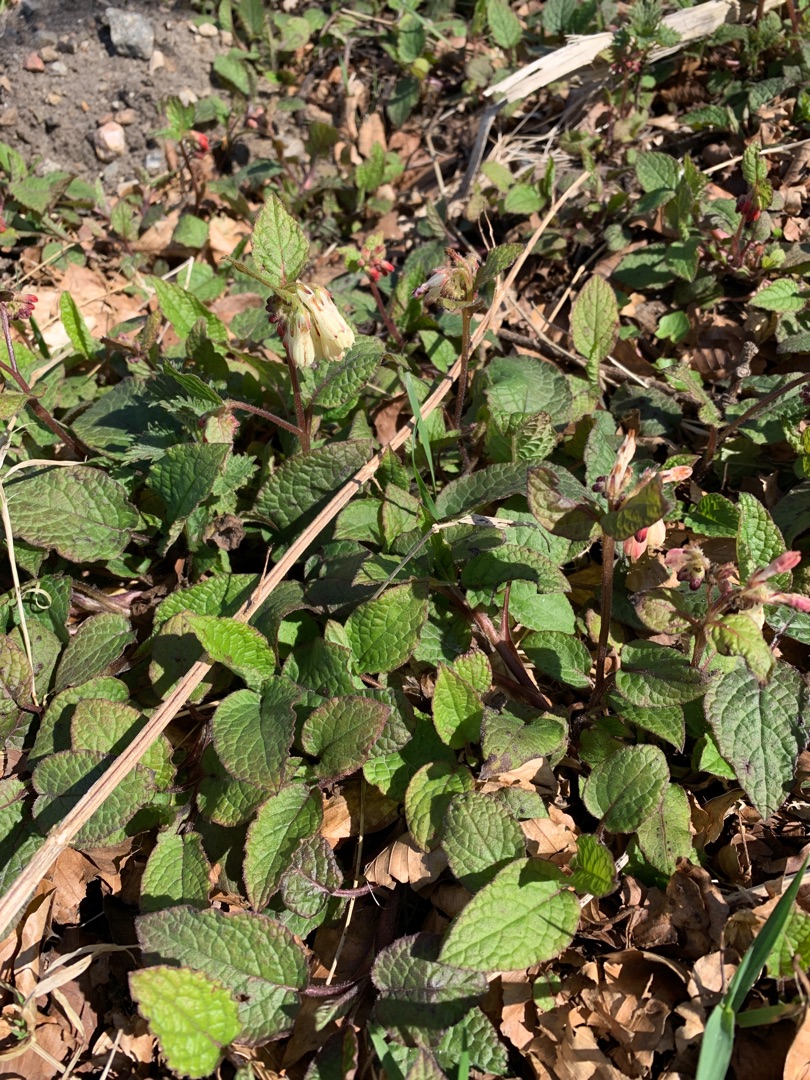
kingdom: Plantae
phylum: Tracheophyta
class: Magnoliopsida
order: Boraginales
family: Boraginaceae
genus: Symphytum
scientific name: Symphytum tuberosum
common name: Knoldet kulsukker
